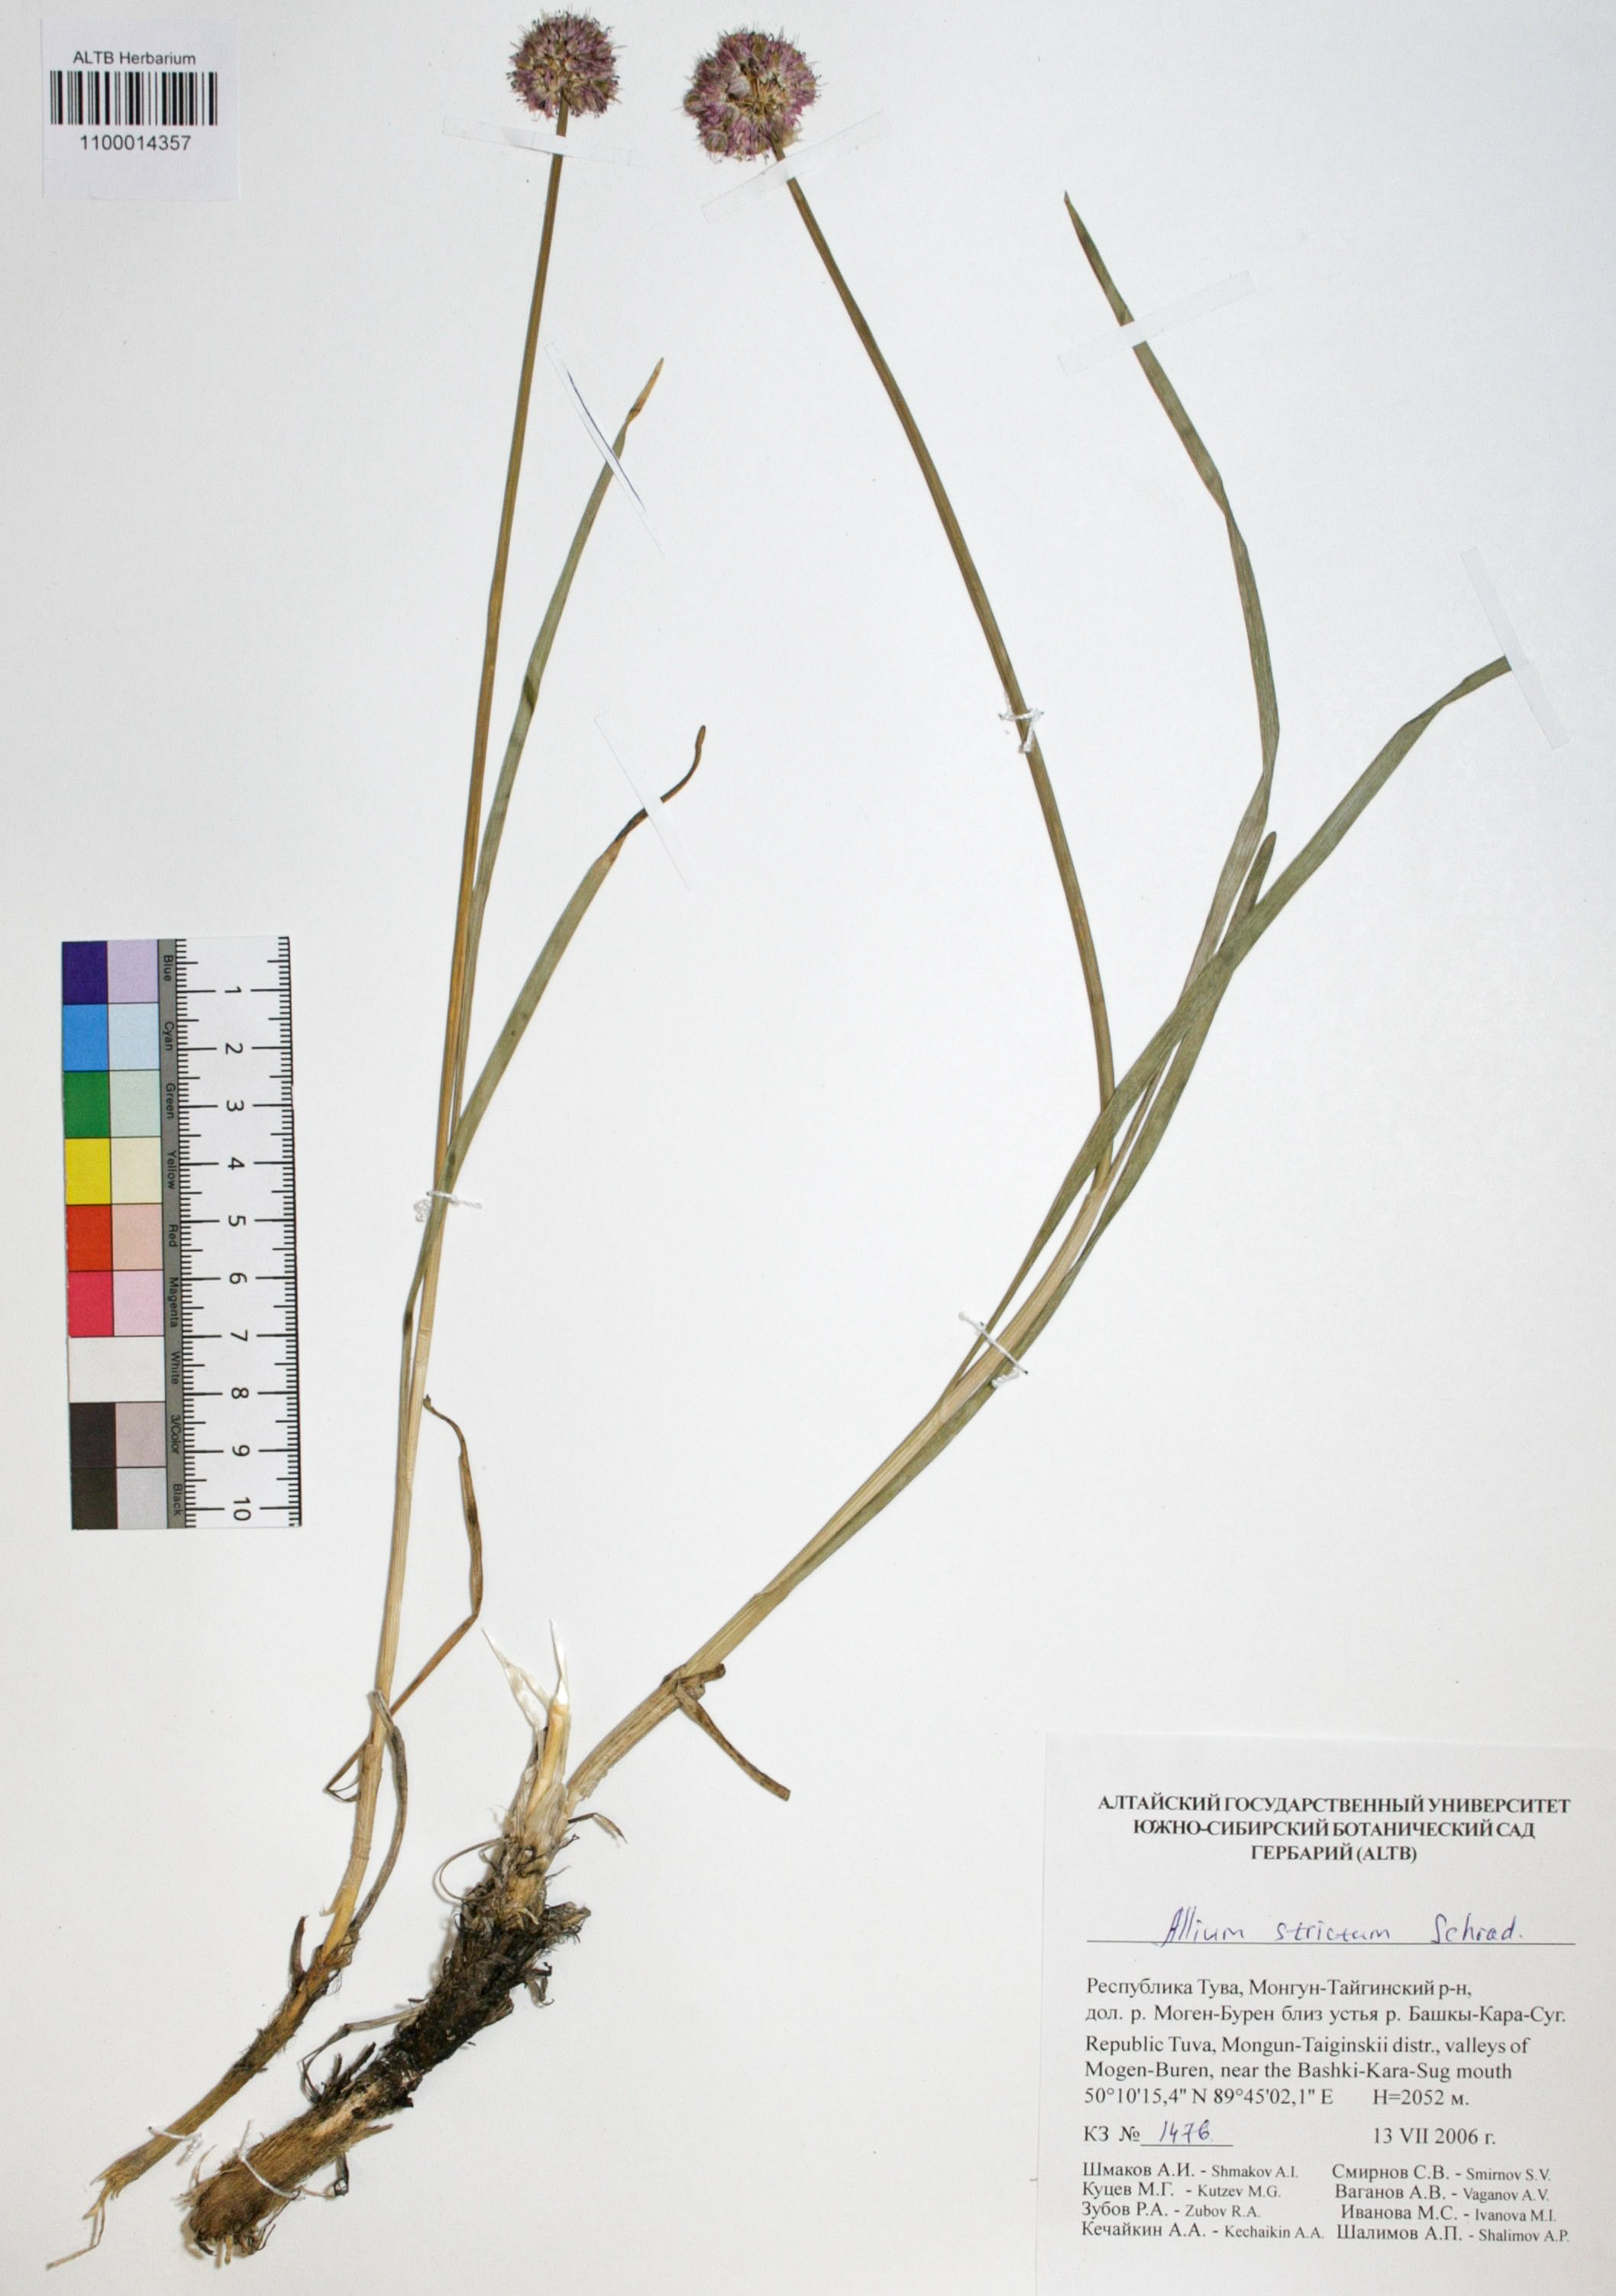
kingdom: Plantae
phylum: Tracheophyta
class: Liliopsida
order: Asparagales
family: Amaryllidaceae
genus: Allium
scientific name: Allium strictum
